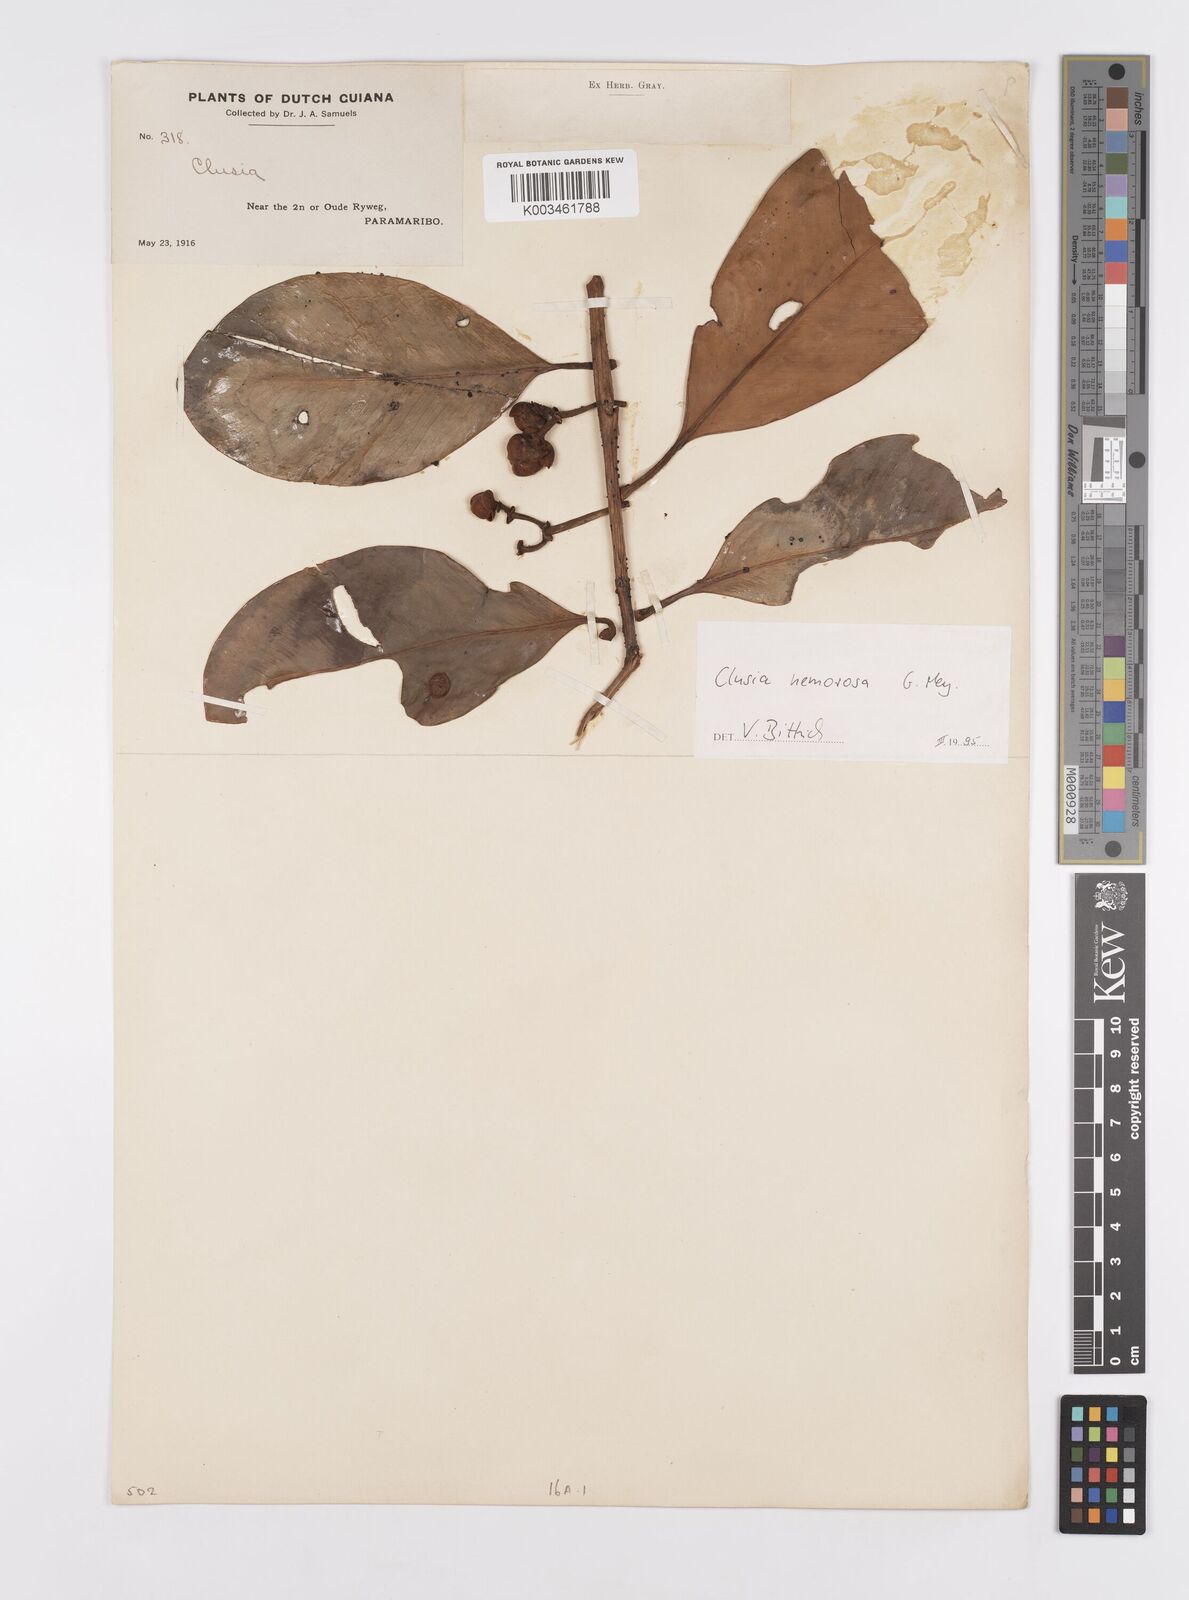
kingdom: Plantae
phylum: Tracheophyta
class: Magnoliopsida
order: Malpighiales
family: Clusiaceae
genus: Clusia
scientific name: Clusia nemorosa
